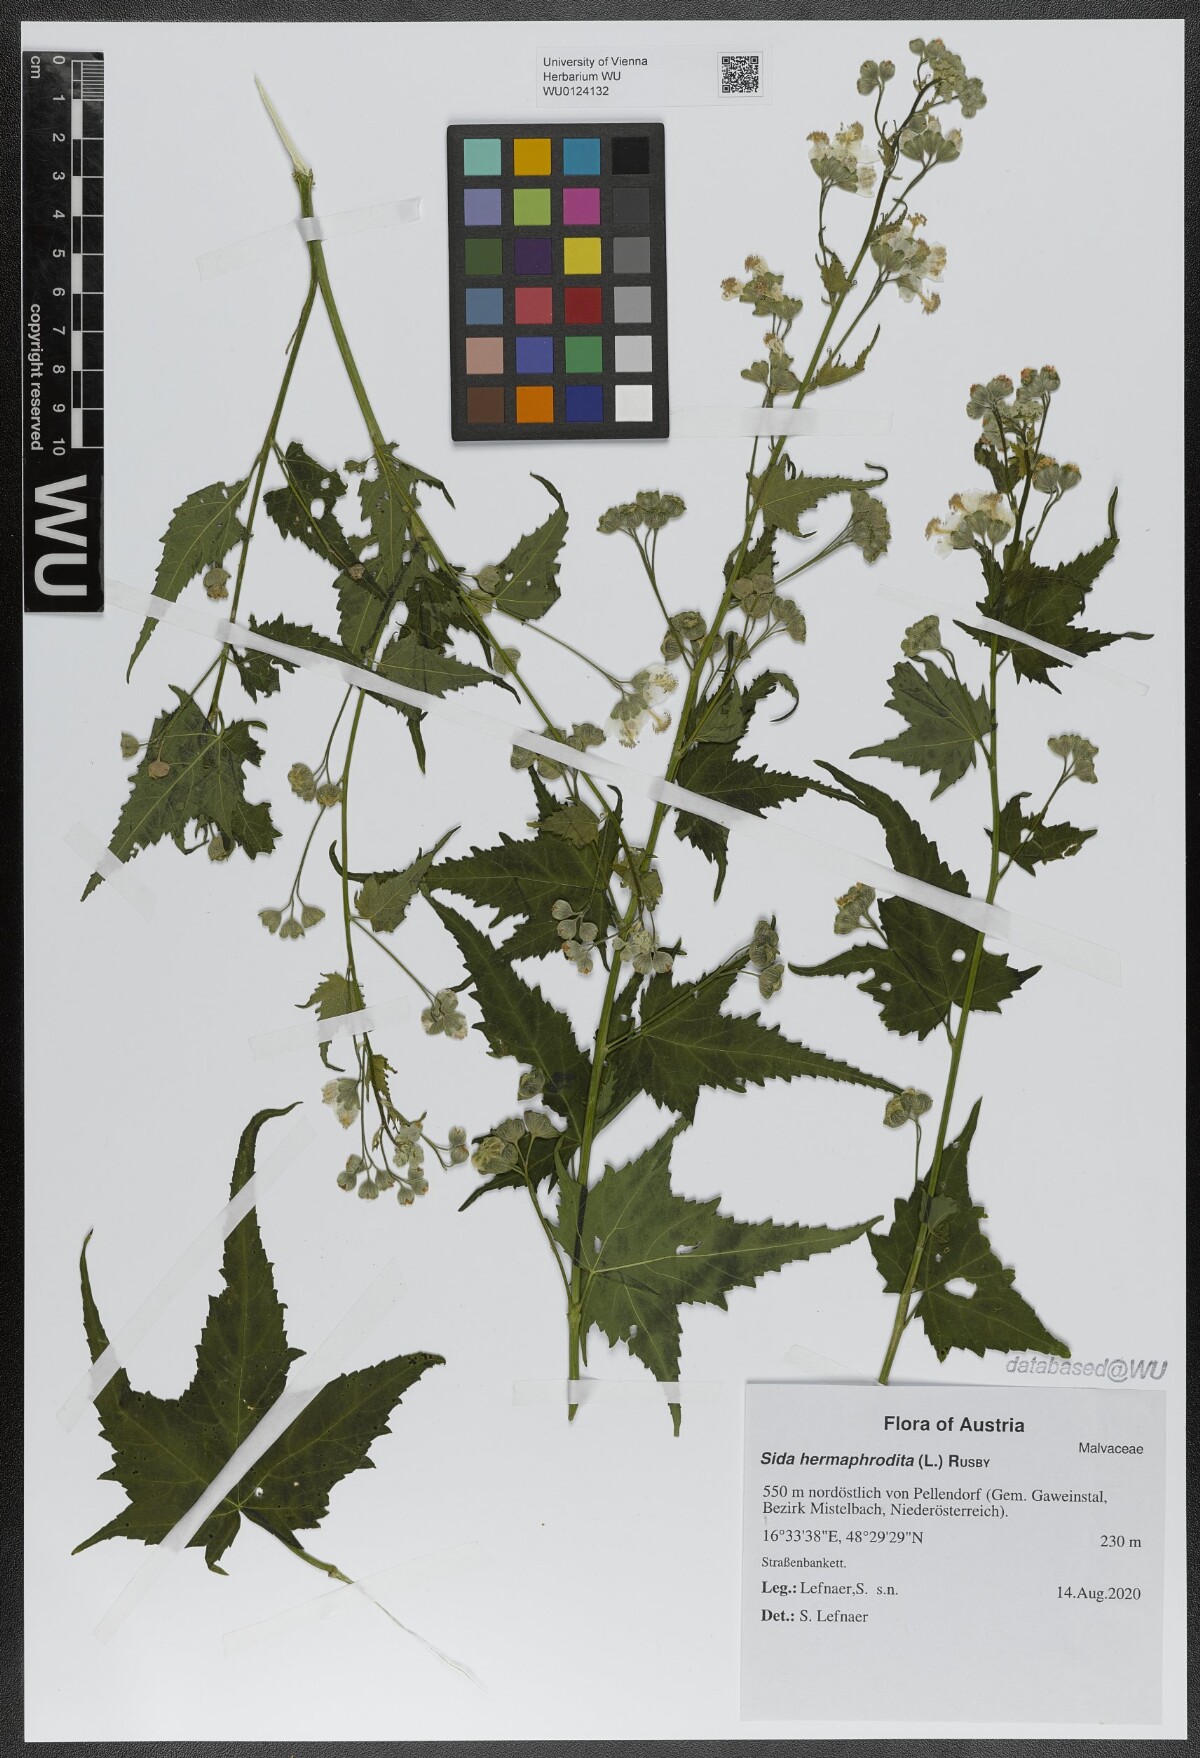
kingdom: Plantae
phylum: Tracheophyta
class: Magnoliopsida
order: Malvales
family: Malvaceae
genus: Ripariosida
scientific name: Ripariosida hermaphrodita
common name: Virginia fanpetals
